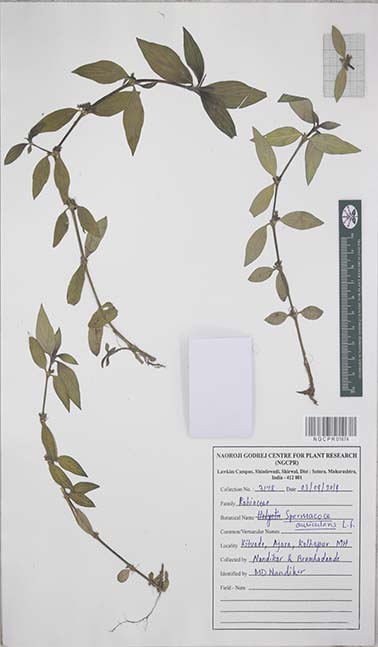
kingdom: Plantae
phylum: Tracheophyta
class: Magnoliopsida
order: Gentianales
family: Rubiaceae
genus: Spermacoce
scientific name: Spermacoce articularis
